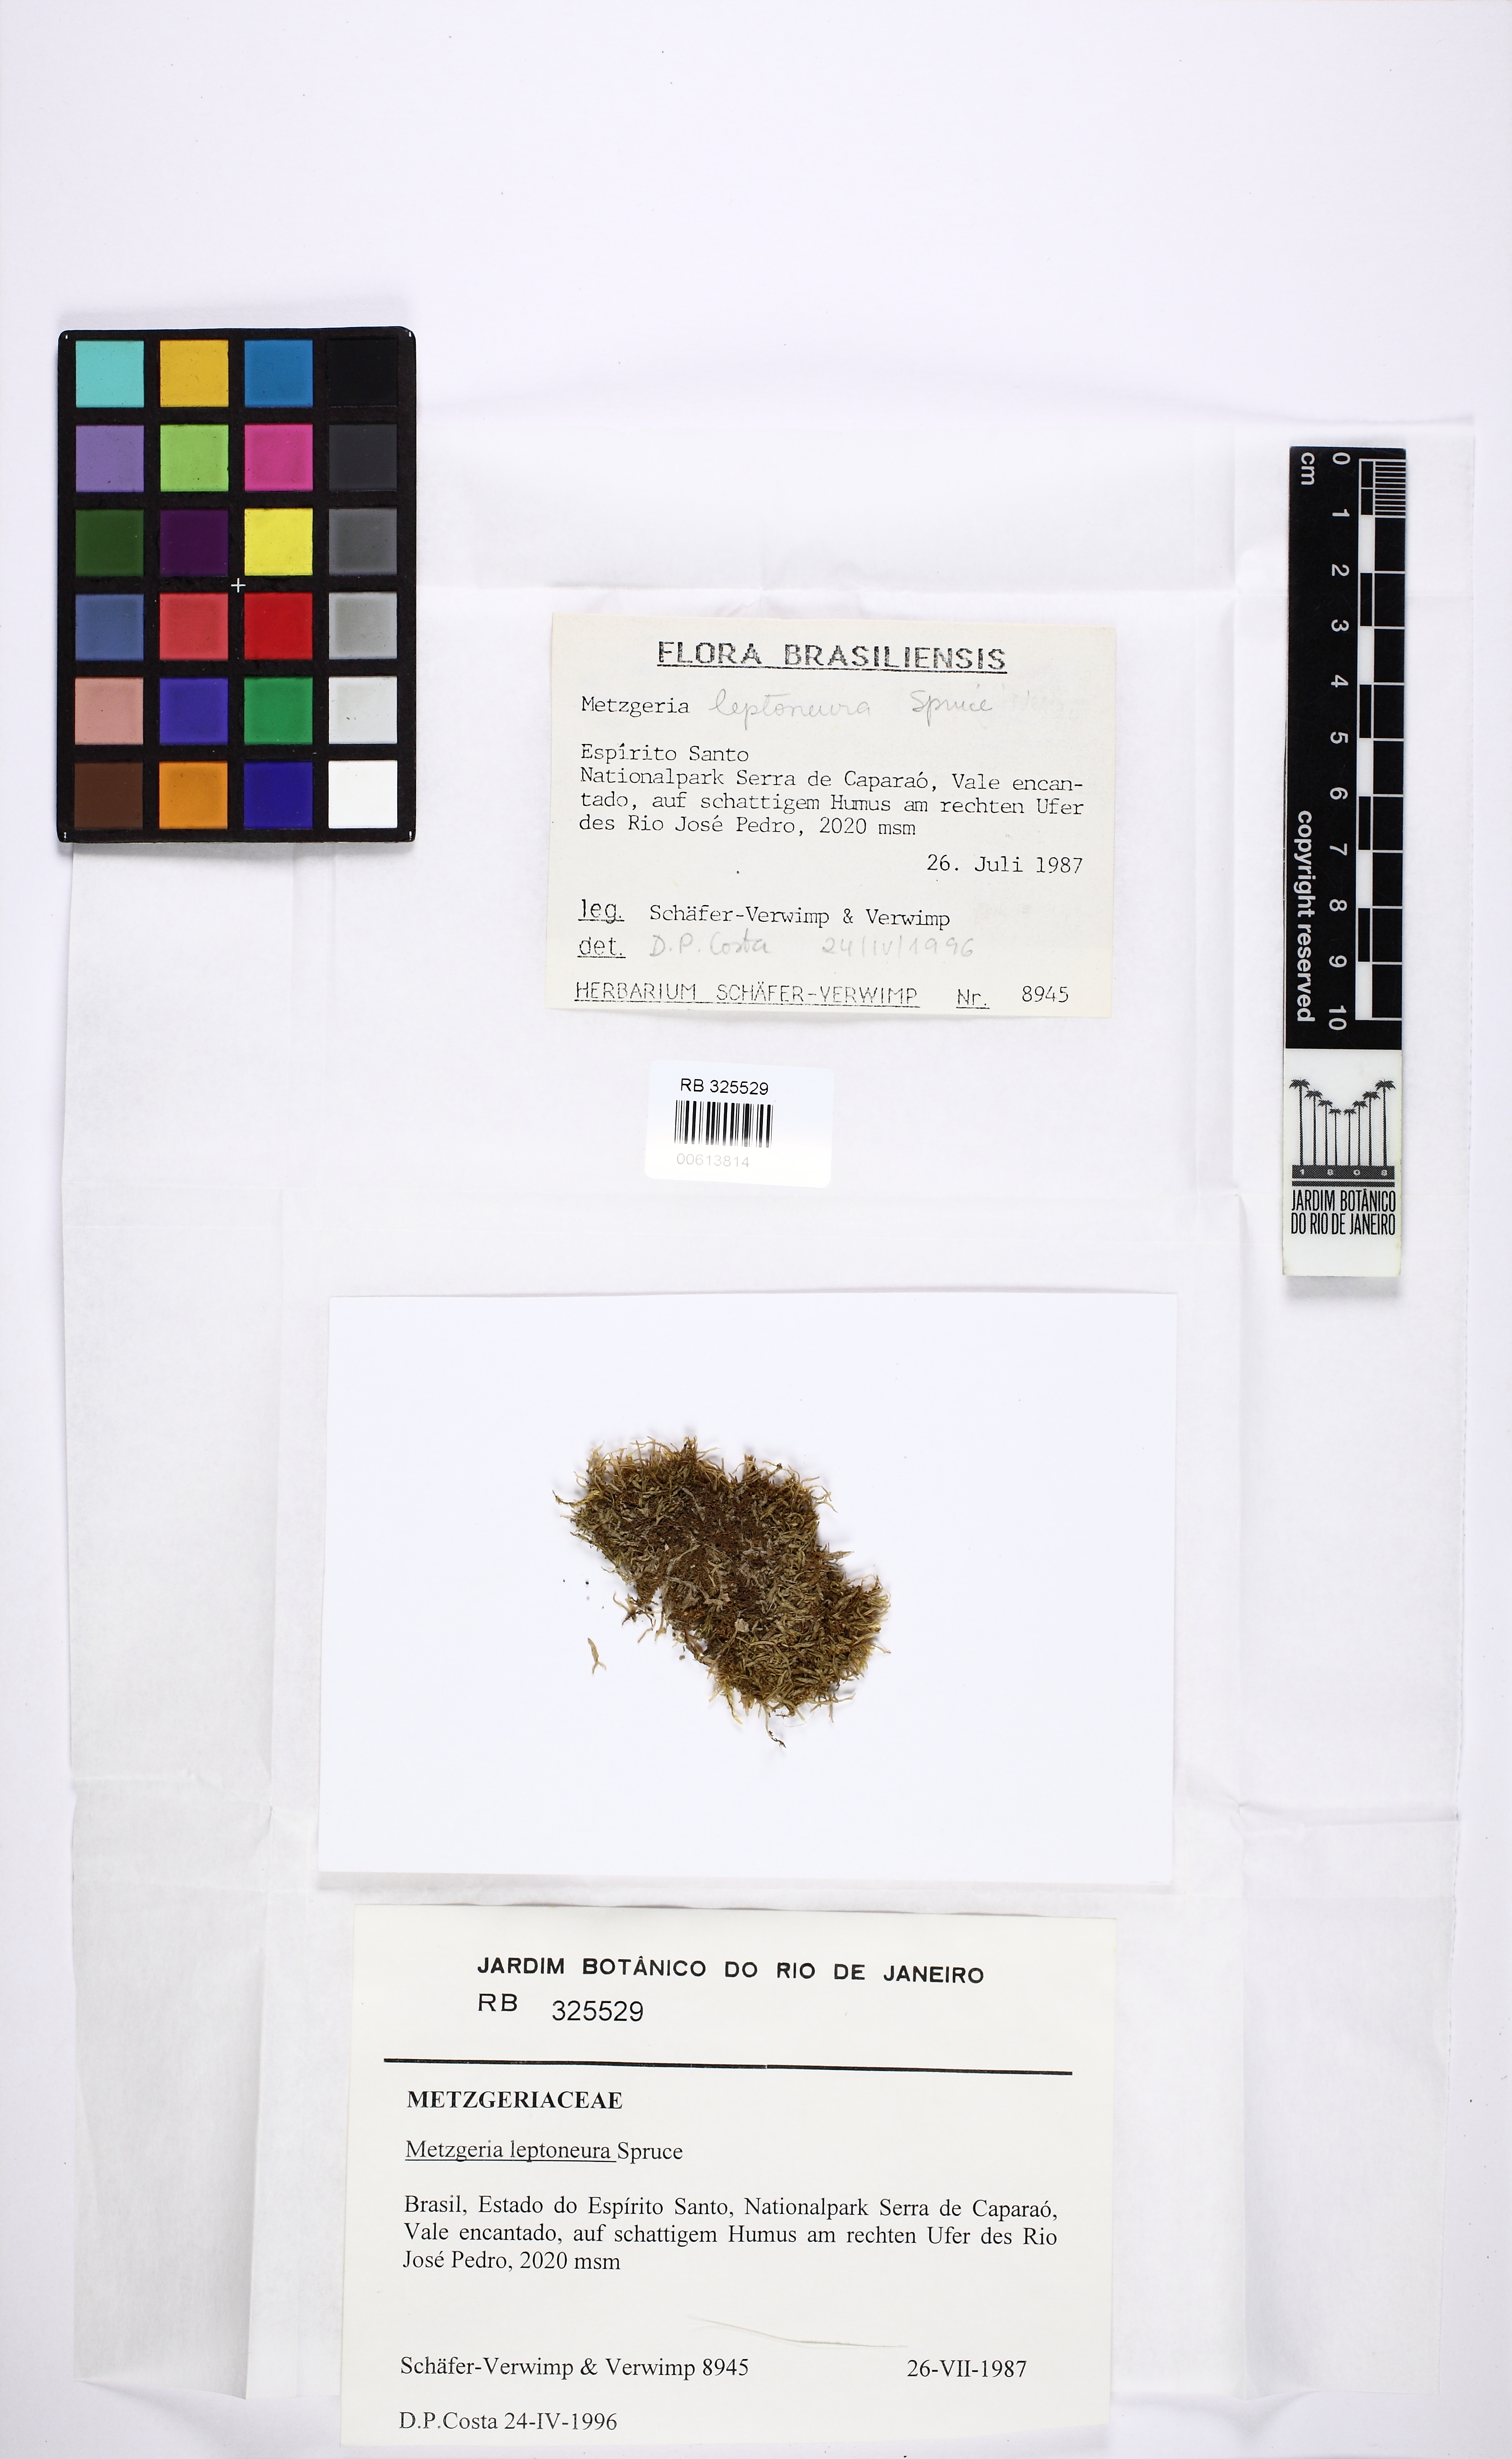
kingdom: Plantae
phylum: Marchantiophyta
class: Jungermanniopsida
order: Metzgeriales
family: Metzgeriaceae
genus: Metzgeria
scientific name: Metzgeria leptoneura
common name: Hooked veilwort
